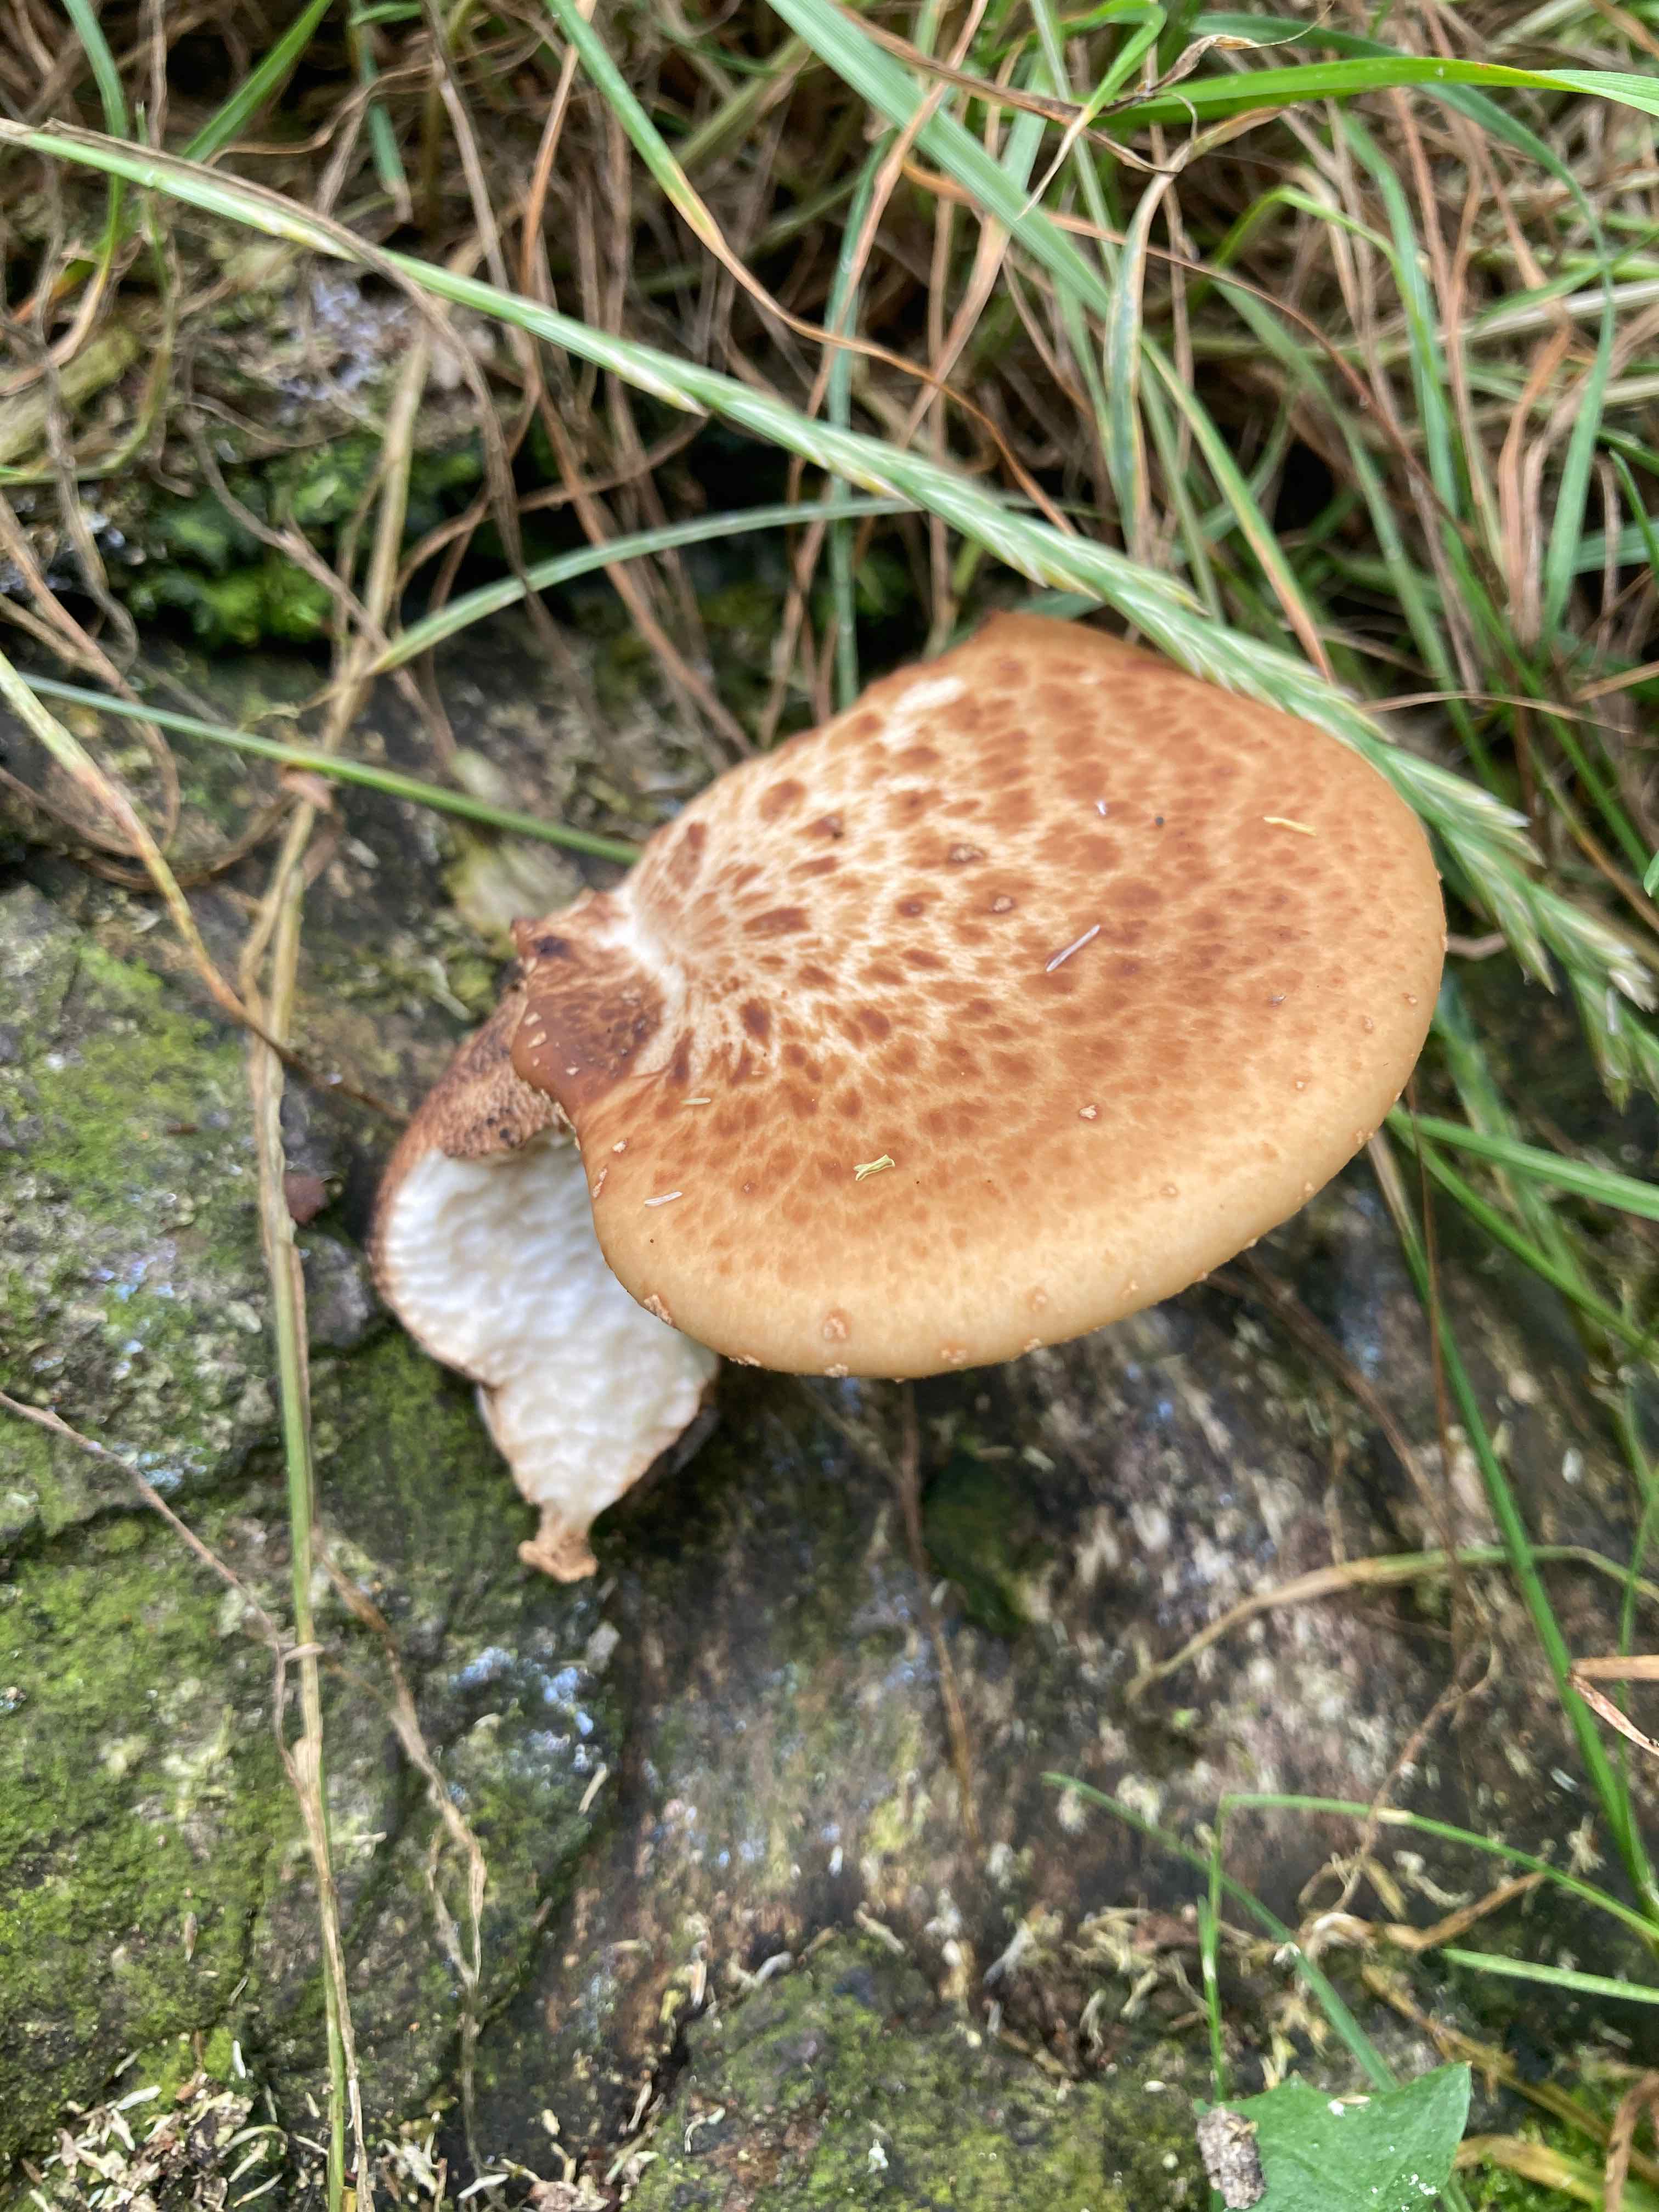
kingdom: Fungi
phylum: Basidiomycota
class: Agaricomycetes
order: Polyporales
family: Polyporaceae
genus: Cerioporus
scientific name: Cerioporus squamosus
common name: skællet stilkporesvamp
